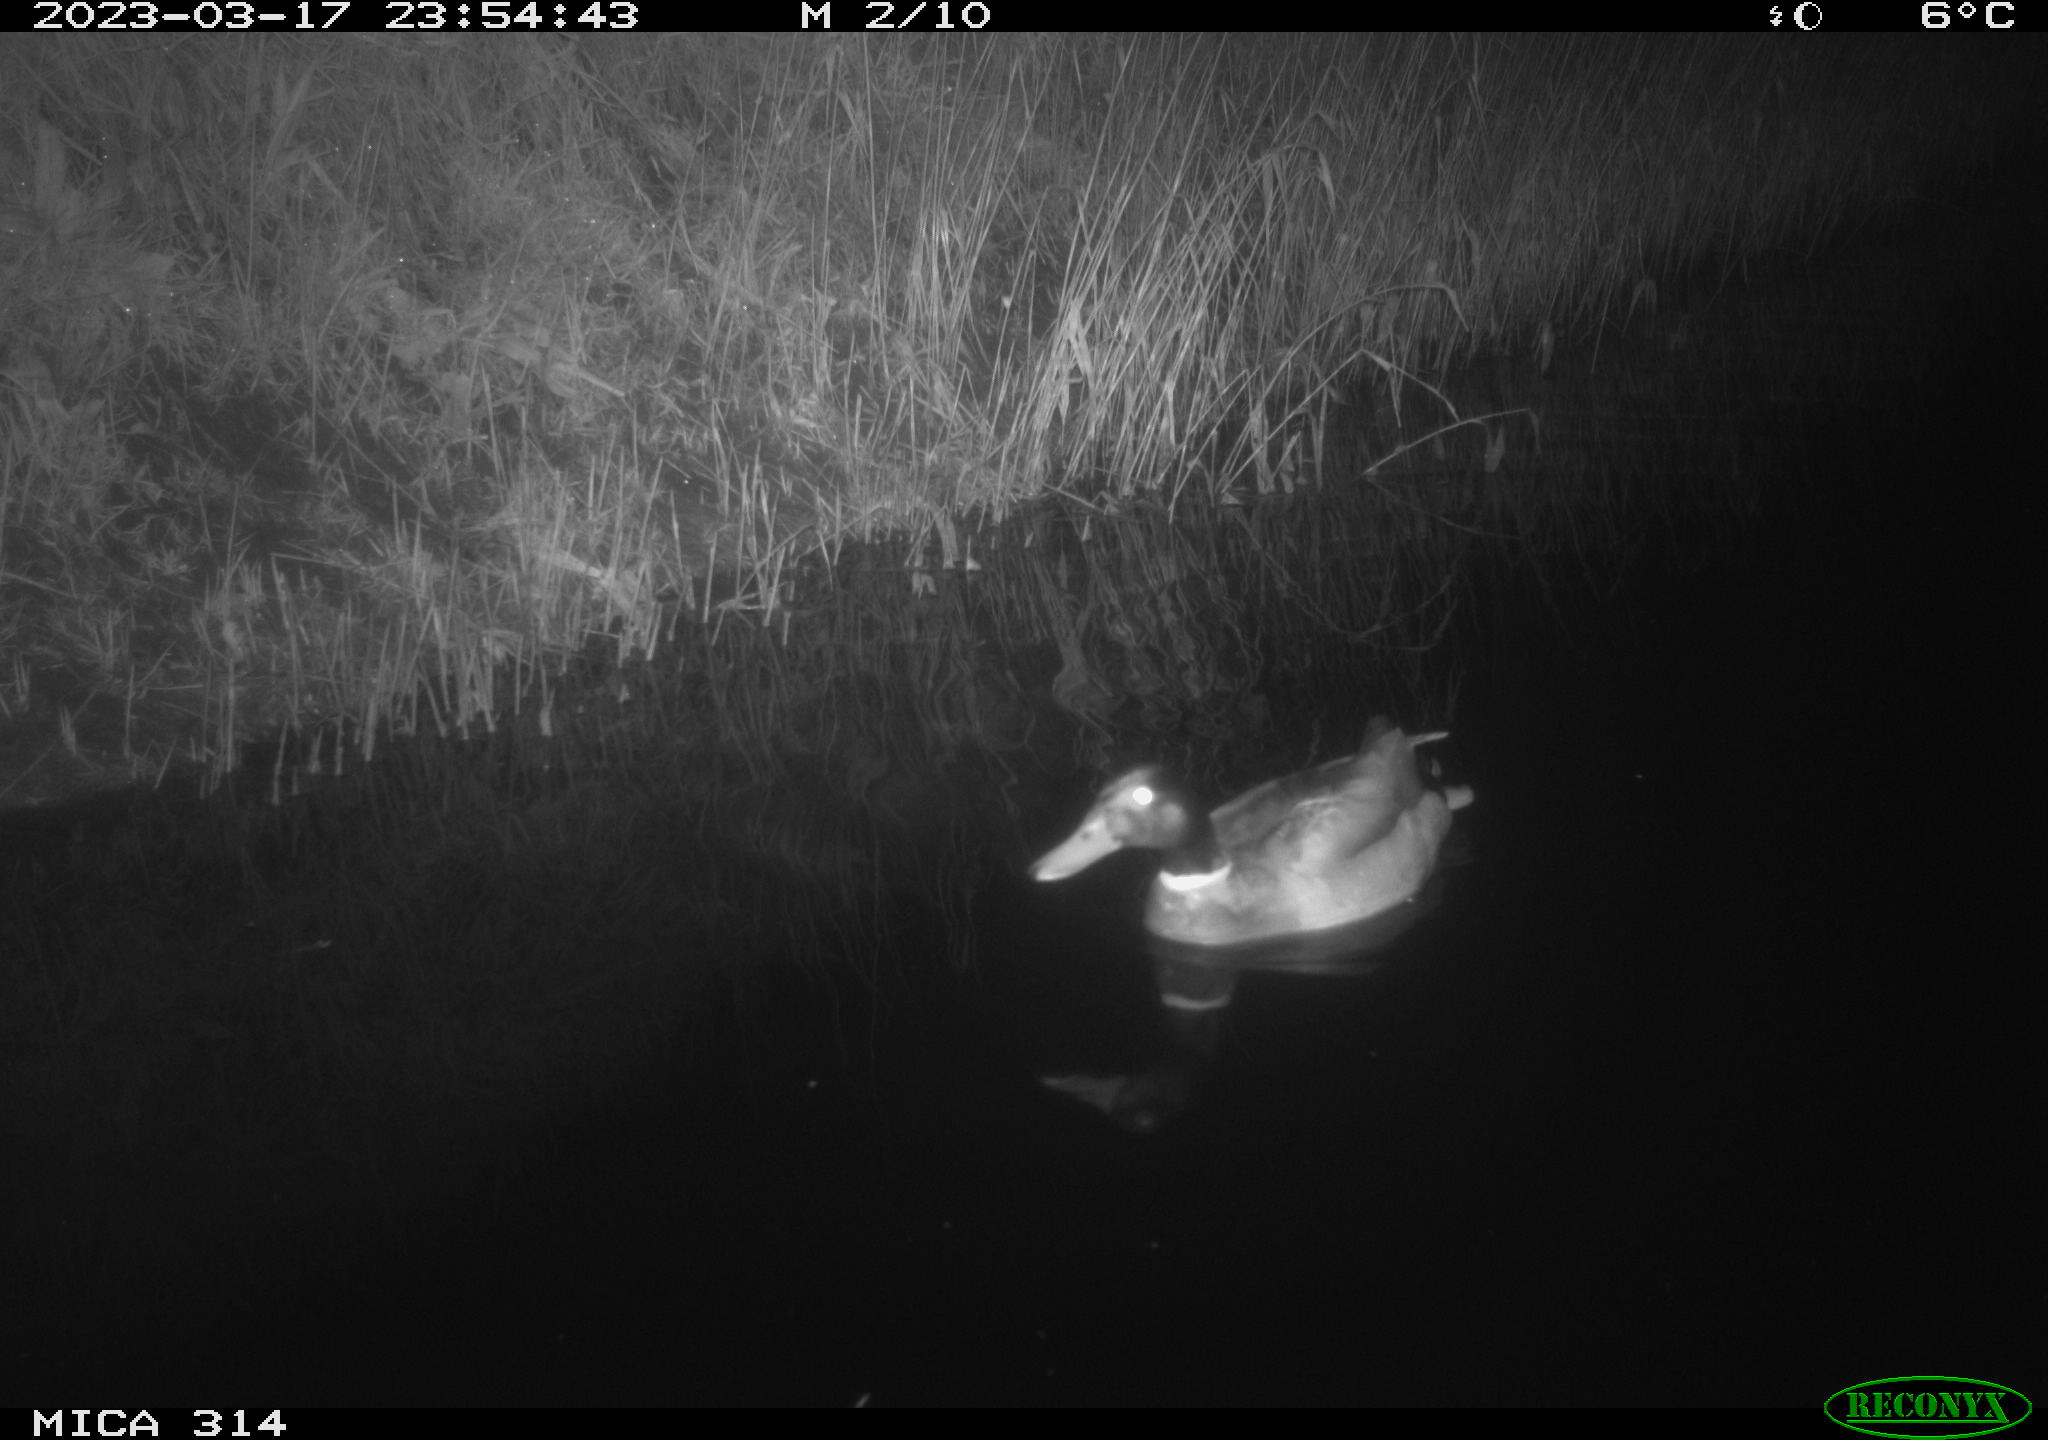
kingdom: Animalia
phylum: Chordata
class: Aves
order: Anseriformes
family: Anatidae
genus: Anas
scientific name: Anas
